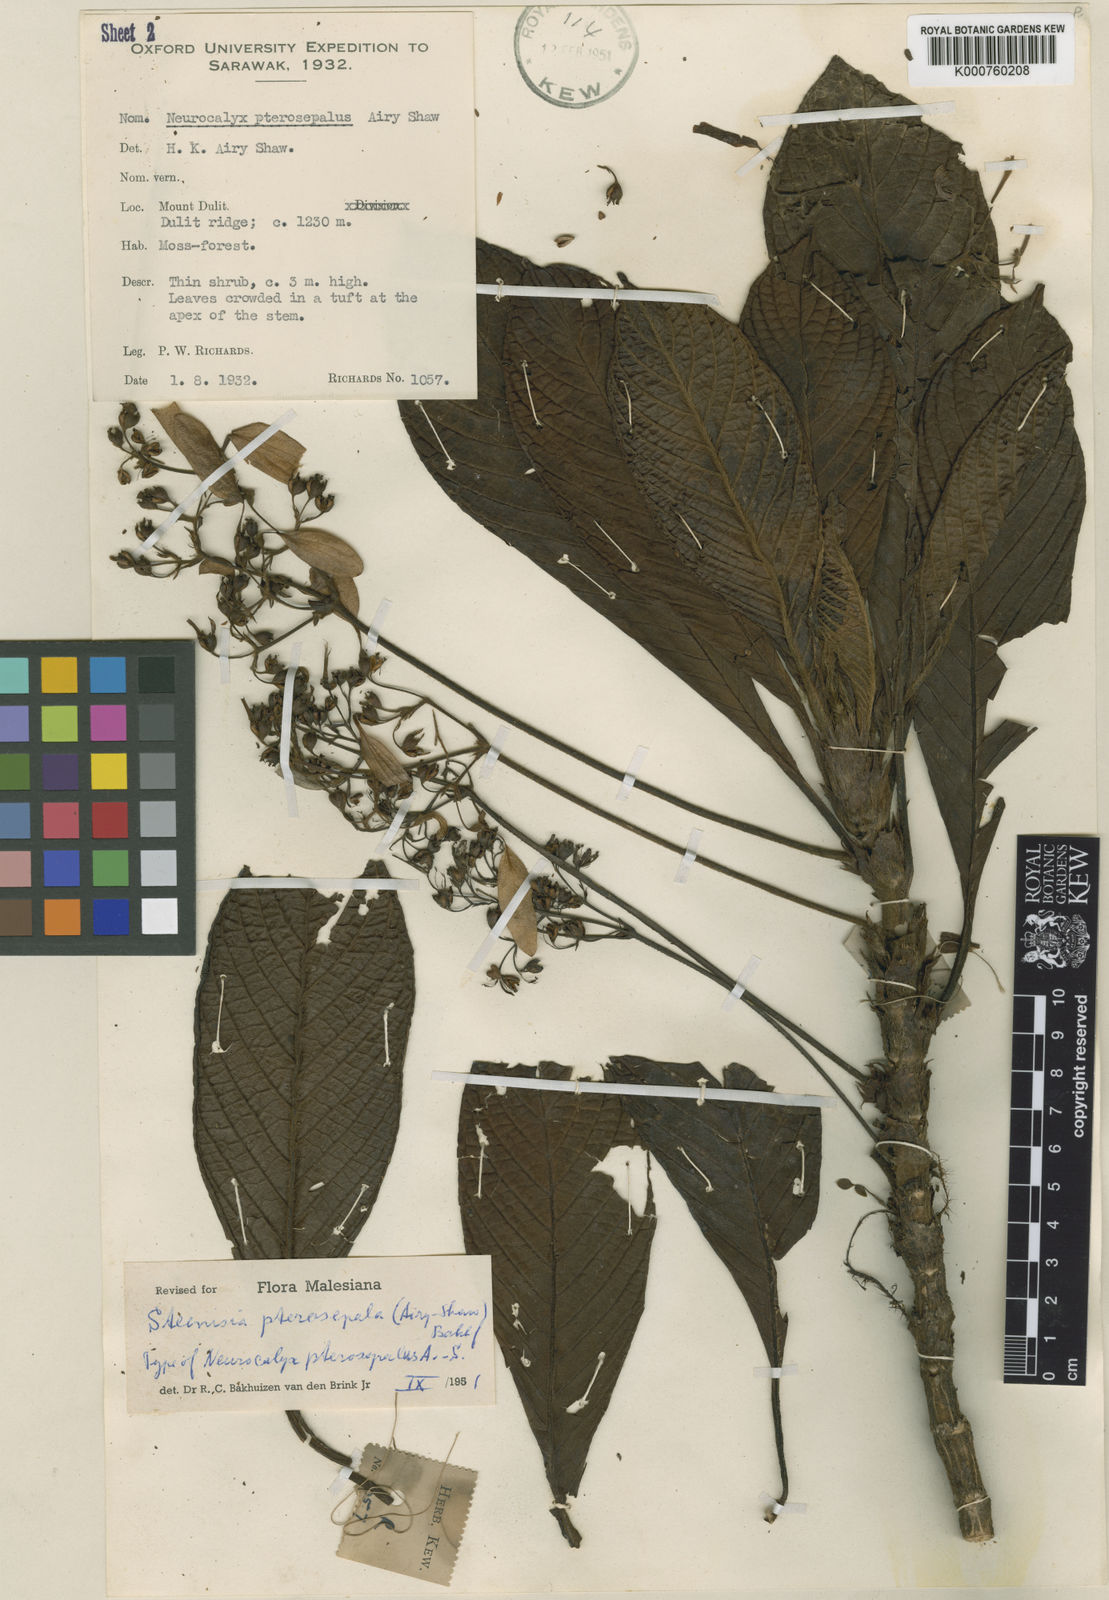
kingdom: Plantae
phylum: Tracheophyta
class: Magnoliopsida
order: Gentianales
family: Rubiaceae
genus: Steenisia
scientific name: Steenisia
